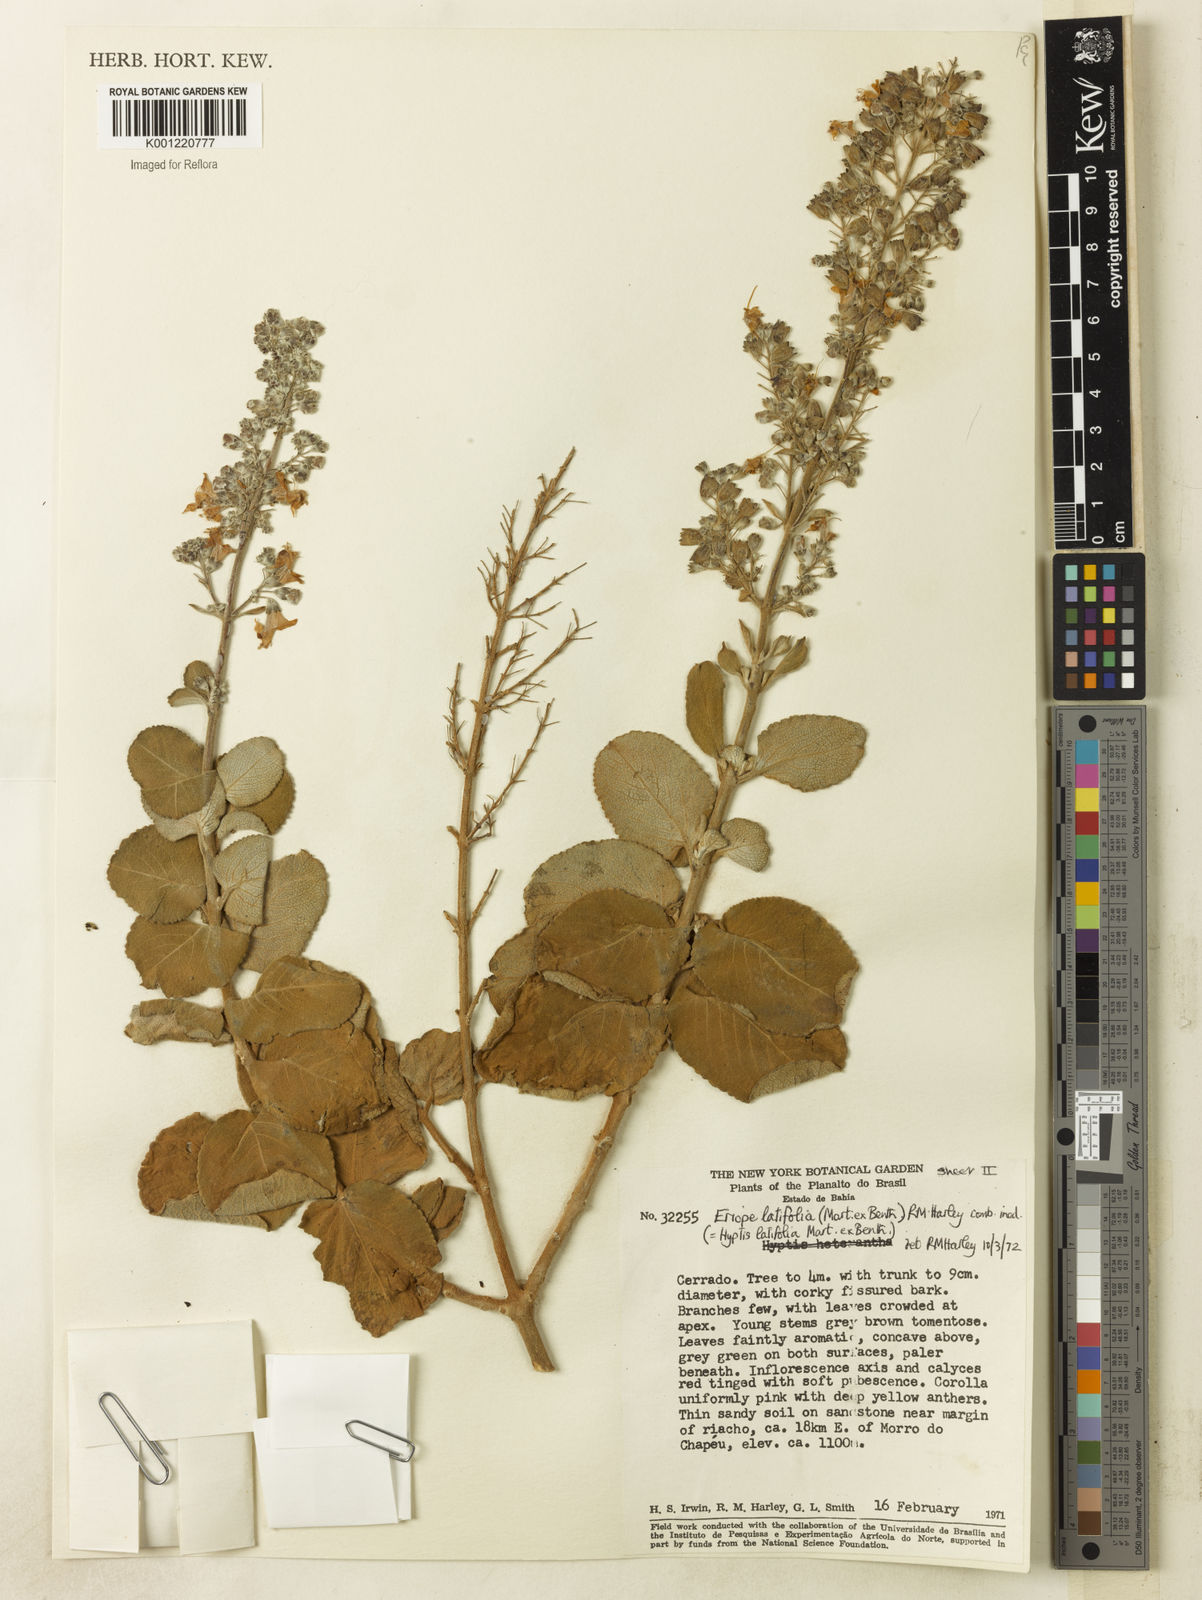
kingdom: Plantae
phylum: Tracheophyta
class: Magnoliopsida
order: Lamiales
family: Lamiaceae
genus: Eriope
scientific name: Eriope latifolia
